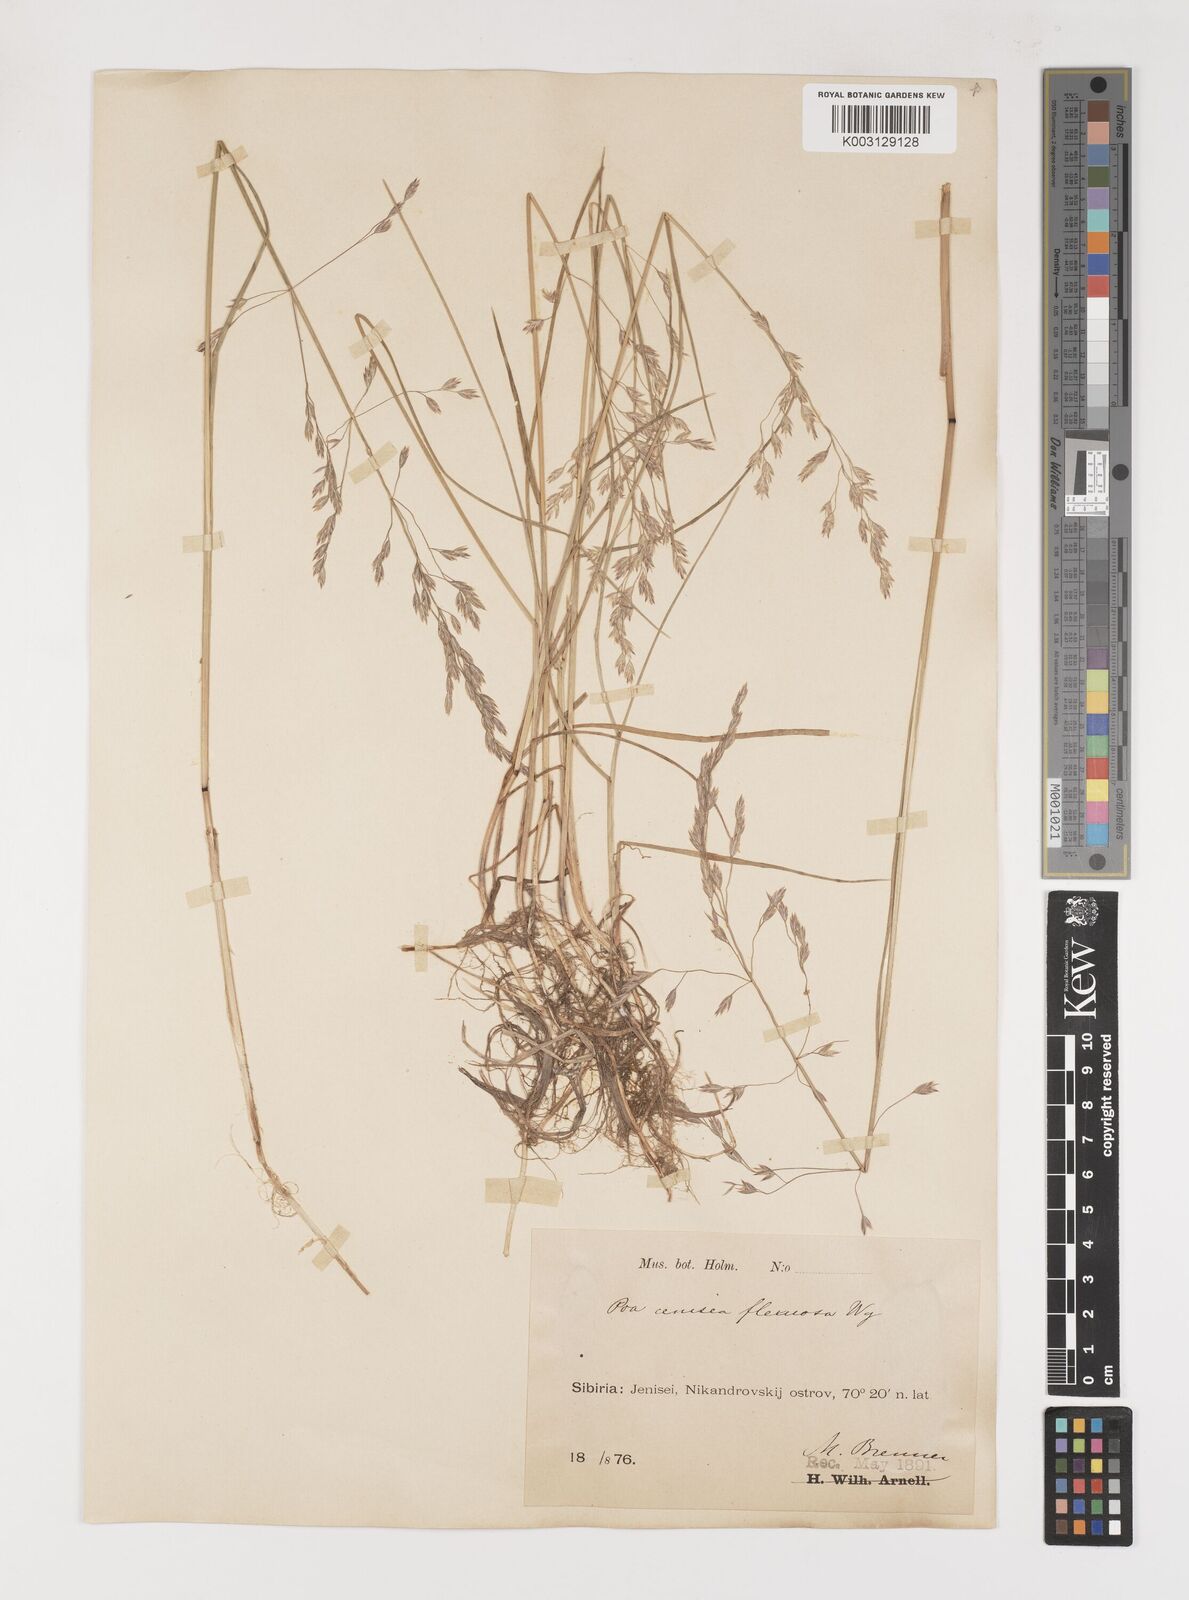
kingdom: Plantae
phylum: Tracheophyta
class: Liliopsida
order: Poales
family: Poaceae
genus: Poa
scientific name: Poa arctica
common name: Arctic bluegrass
